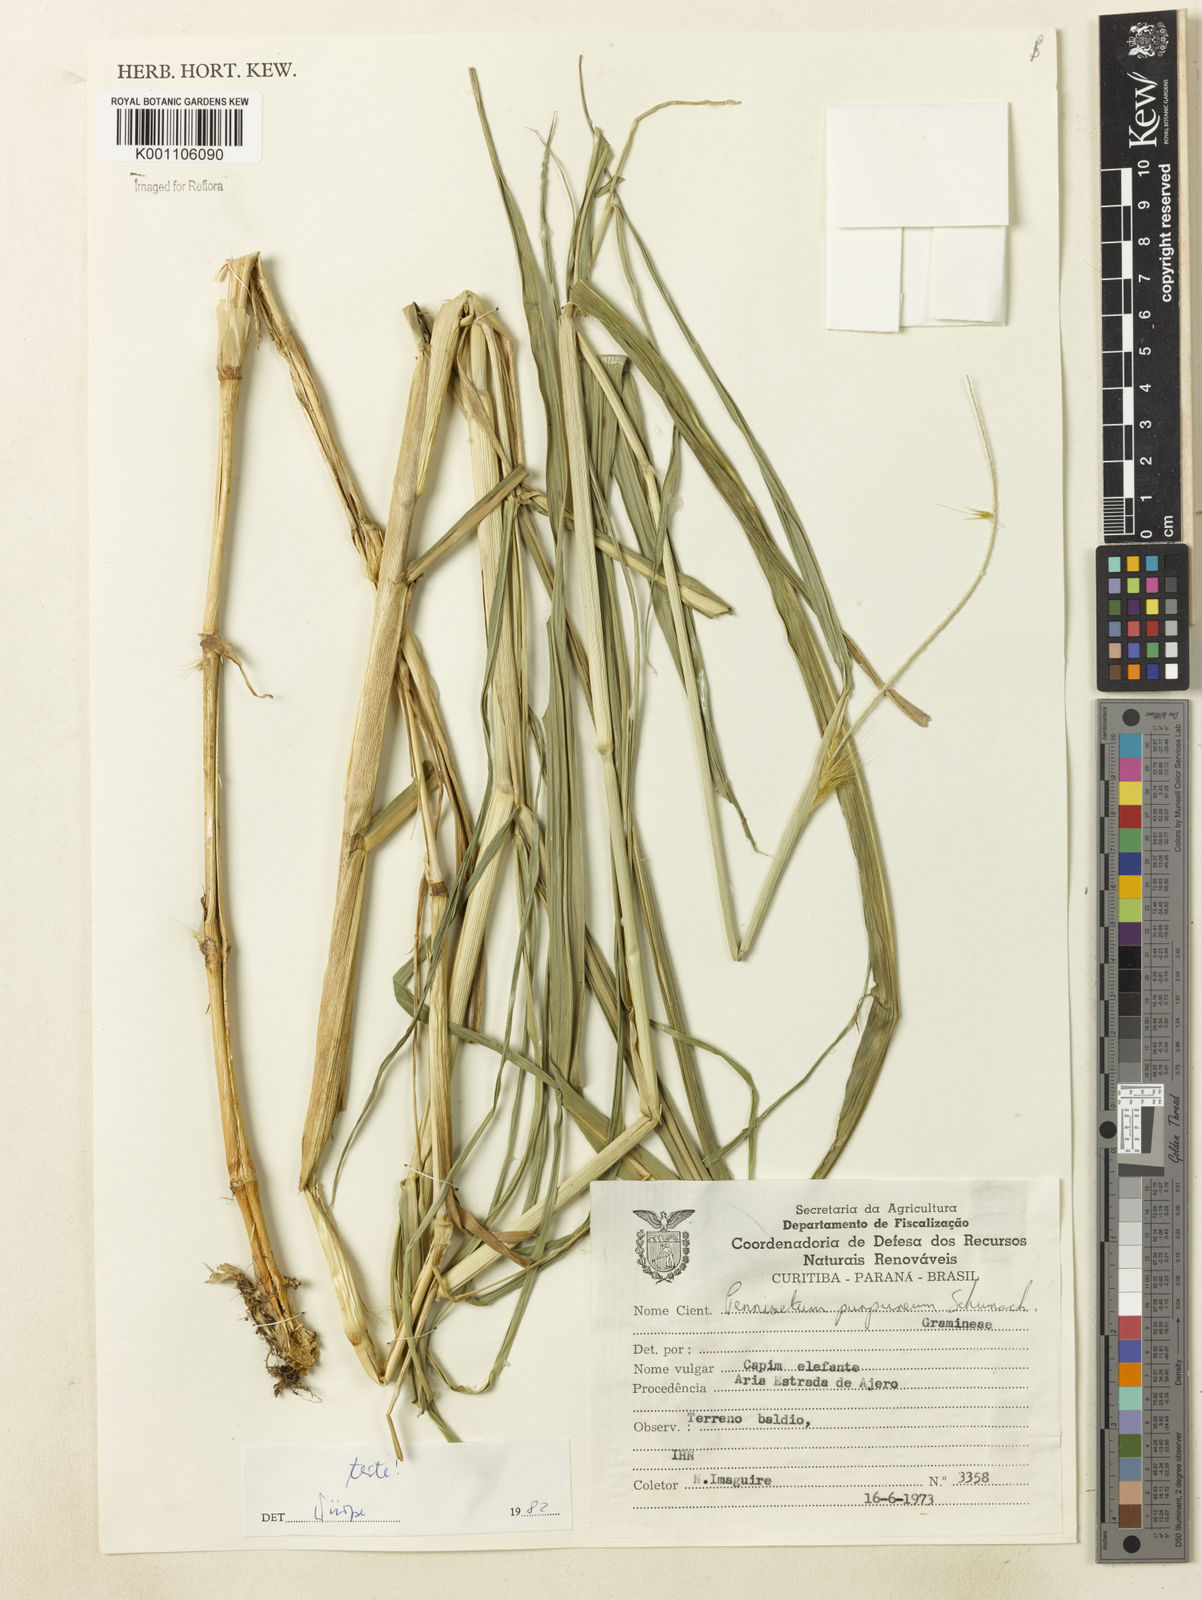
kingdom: Plantae
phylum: Tracheophyta
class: Liliopsida
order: Poales
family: Poaceae
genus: Cenchrus
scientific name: Cenchrus purpureus
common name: Elephant grass
